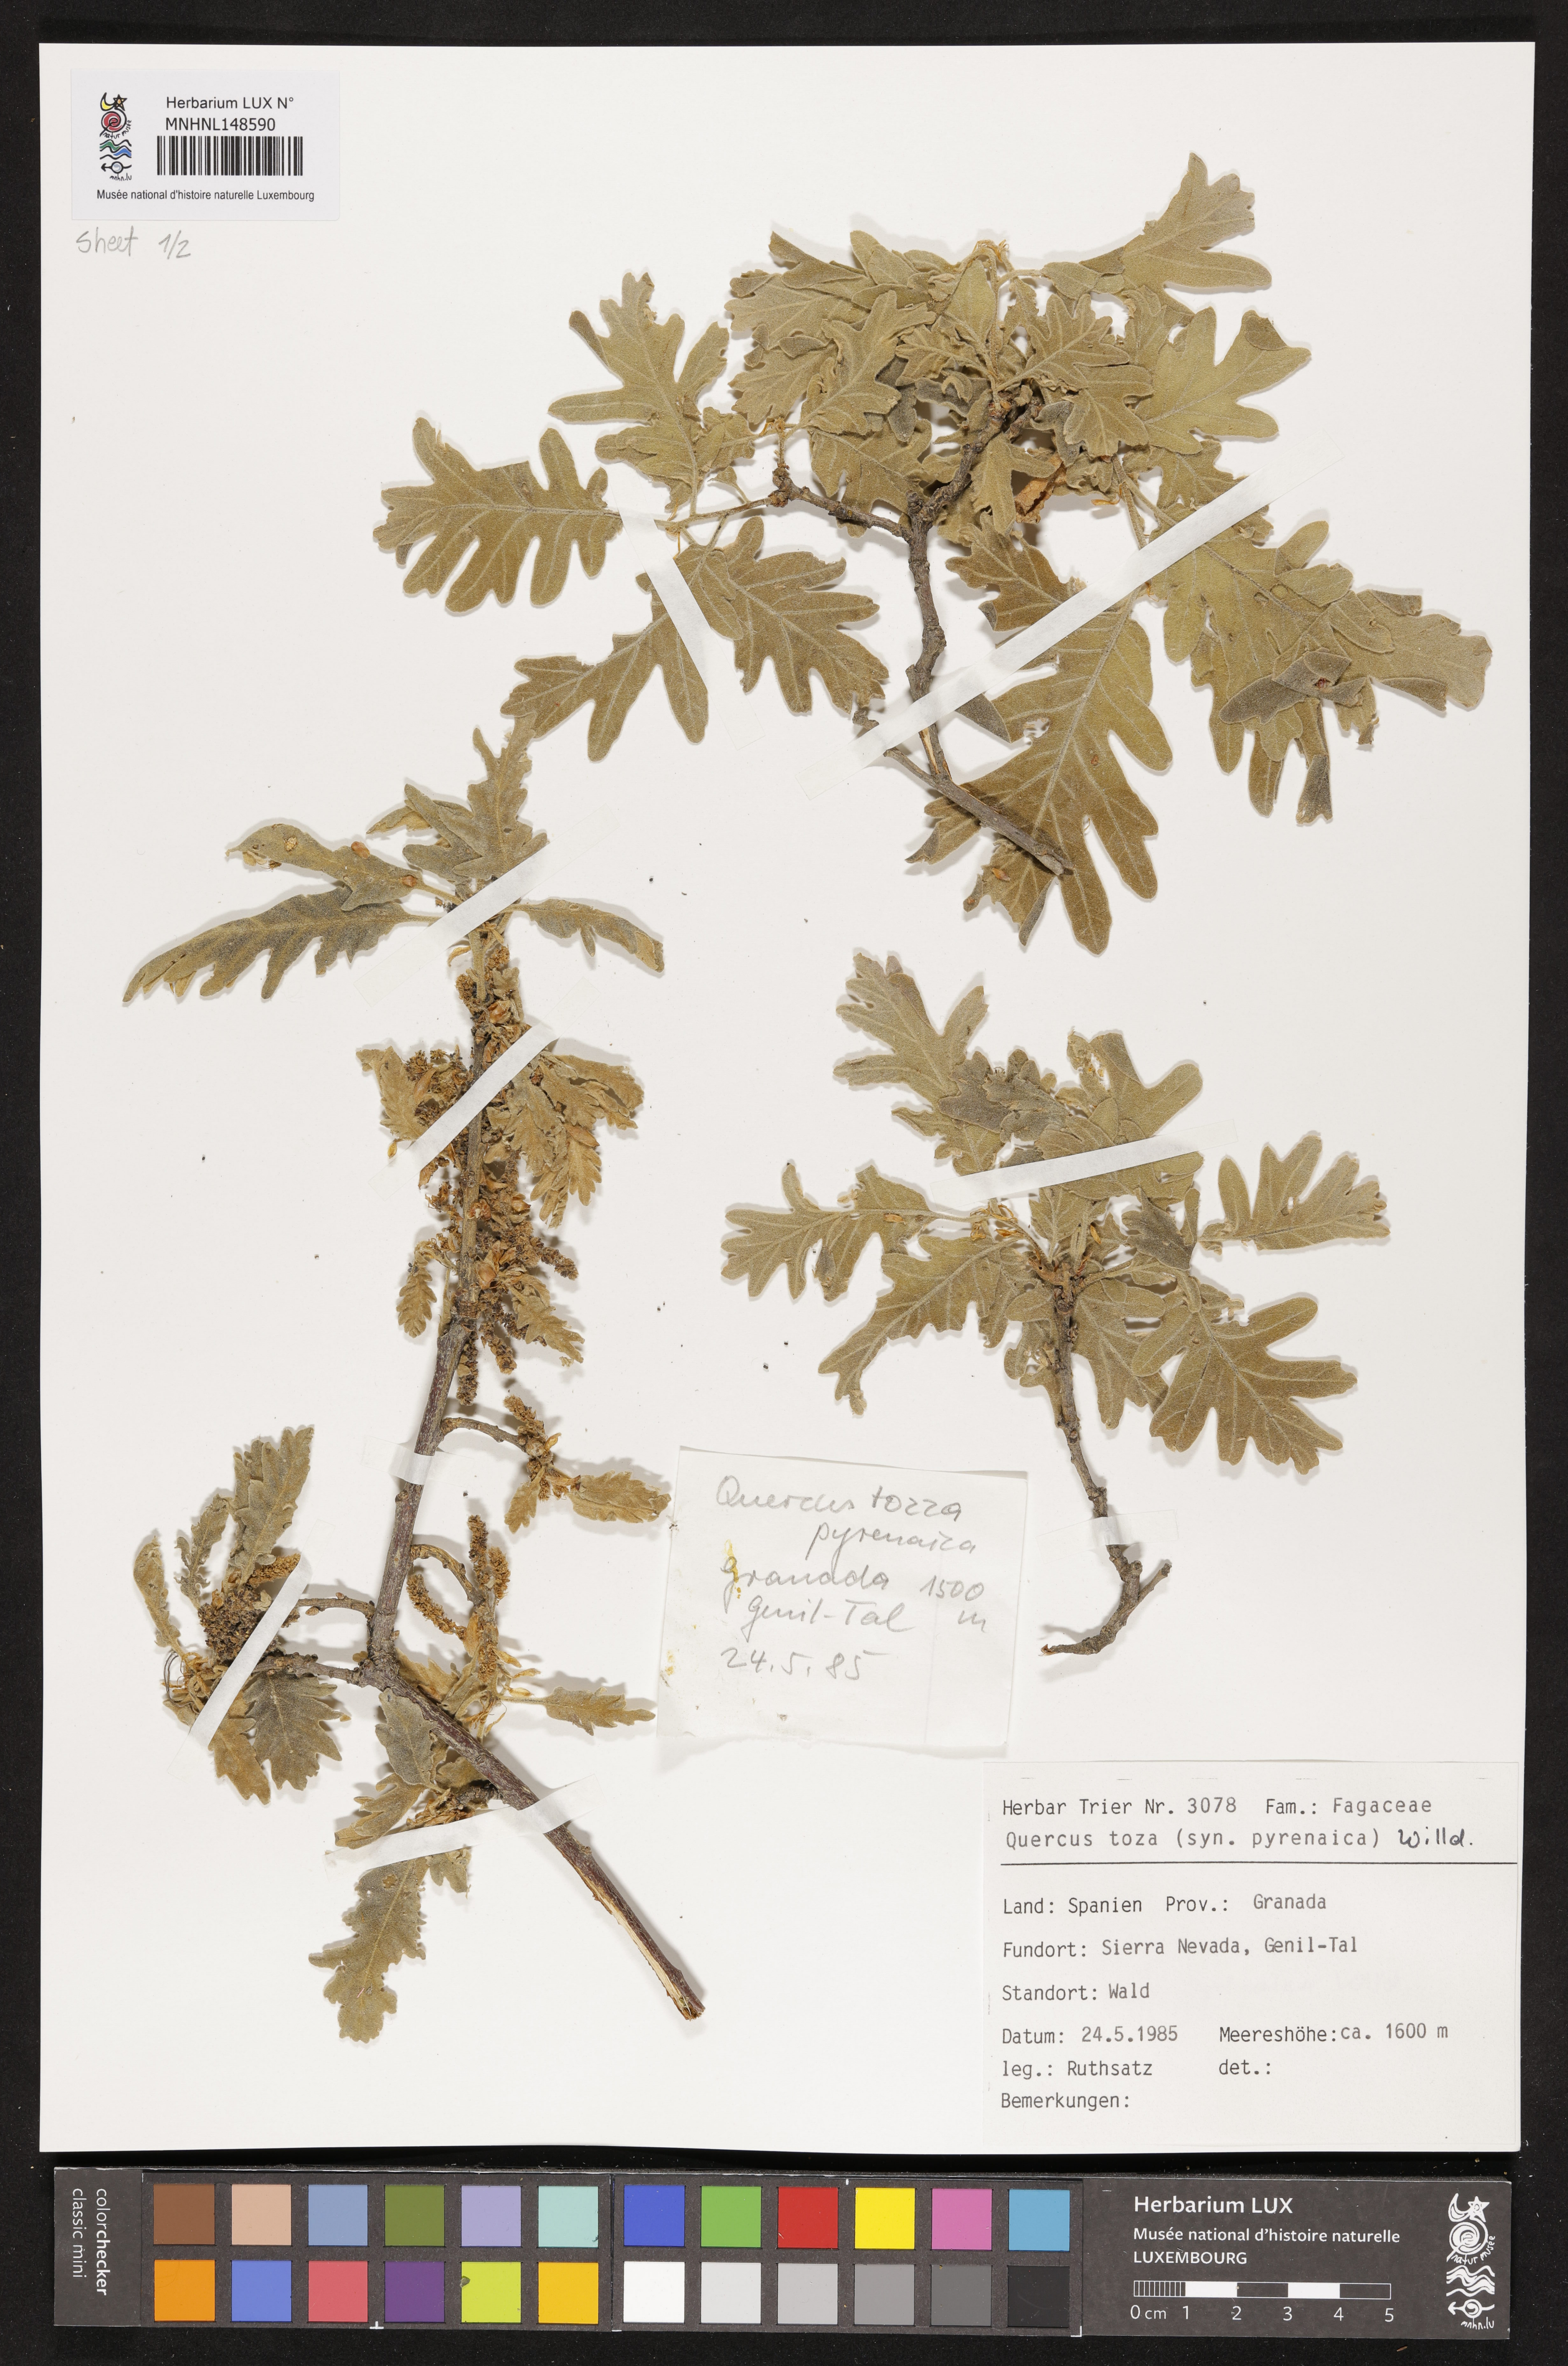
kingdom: Plantae
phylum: Tracheophyta
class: Magnoliopsida
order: Fagales
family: Fagaceae
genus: Quercus
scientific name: Quercus pyrenaica
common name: Pyrenean oak
